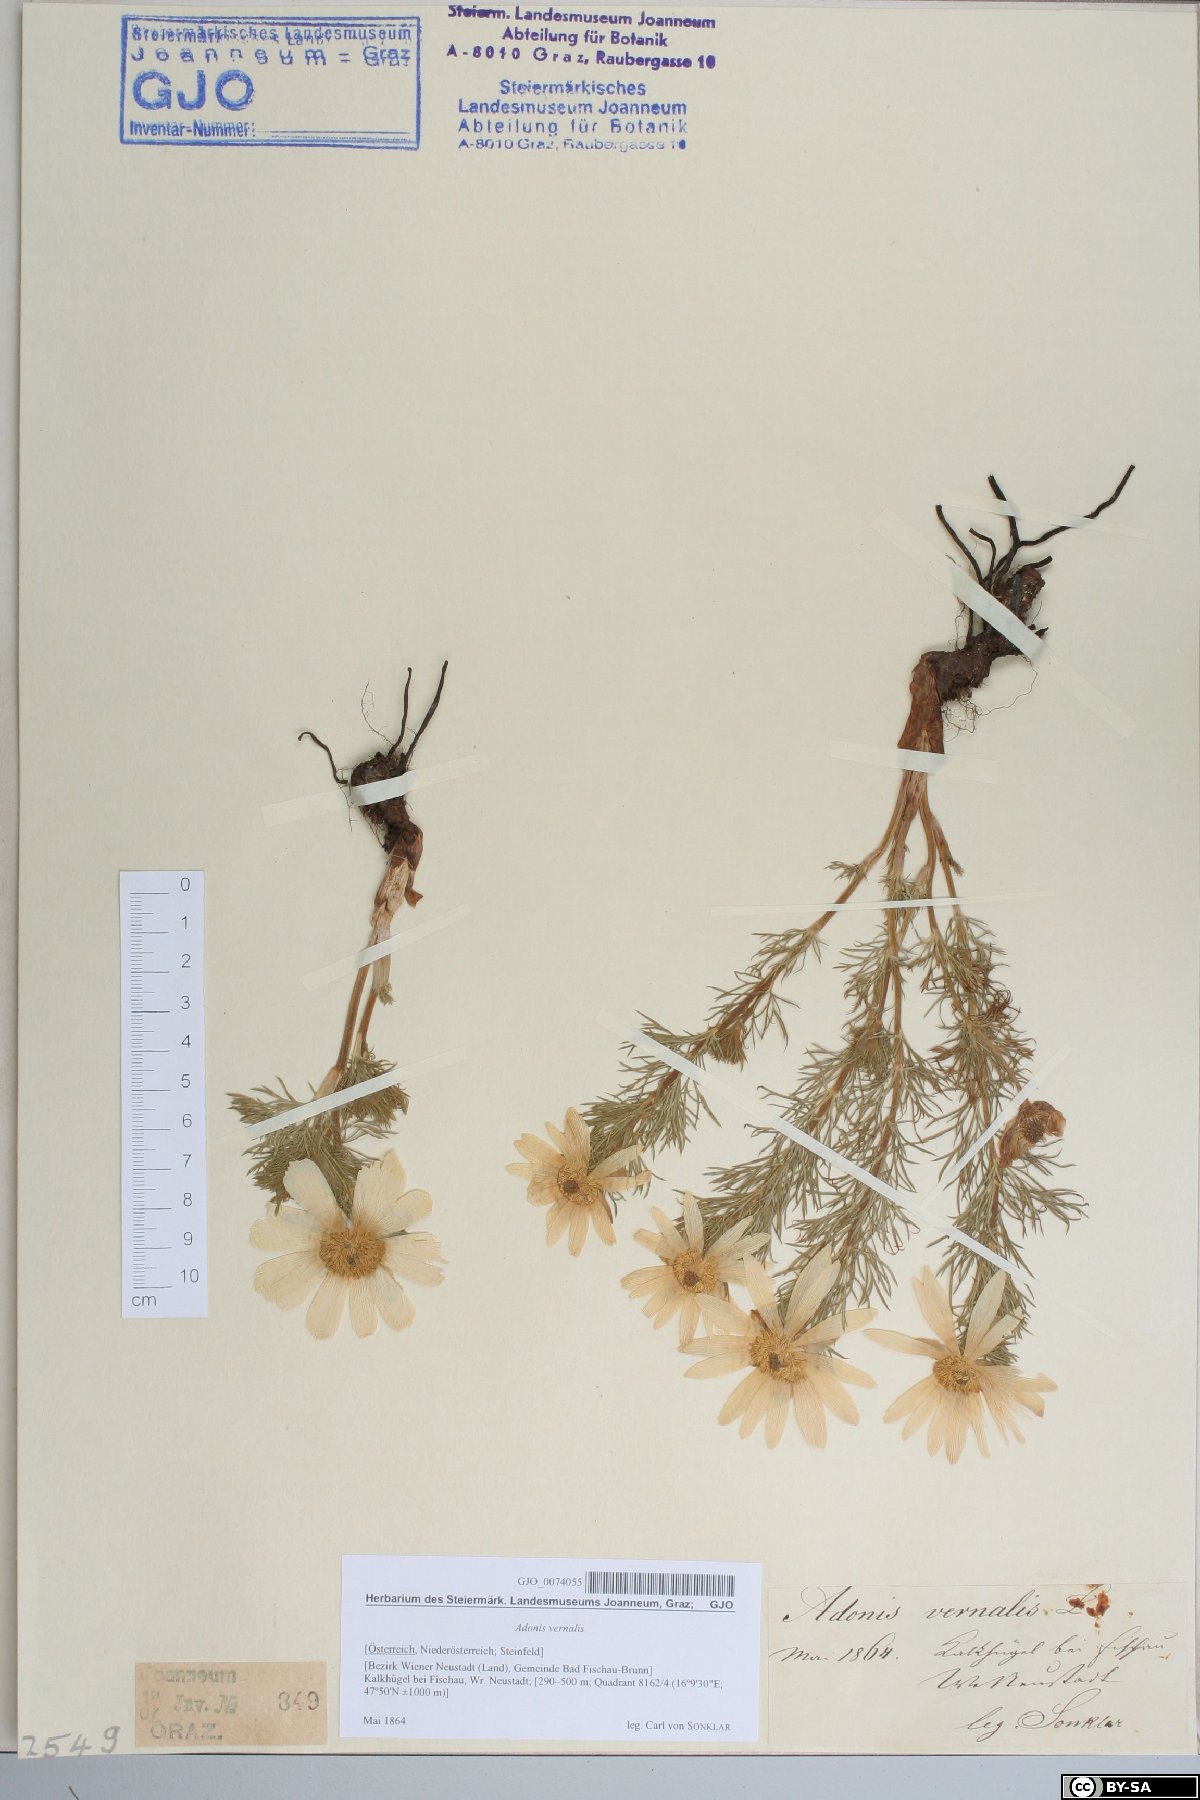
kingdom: Plantae
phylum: Tracheophyta
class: Magnoliopsida
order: Ranunculales
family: Ranunculaceae
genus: Adonis
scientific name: Adonis vernalis
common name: Yellow pheasants-eye
